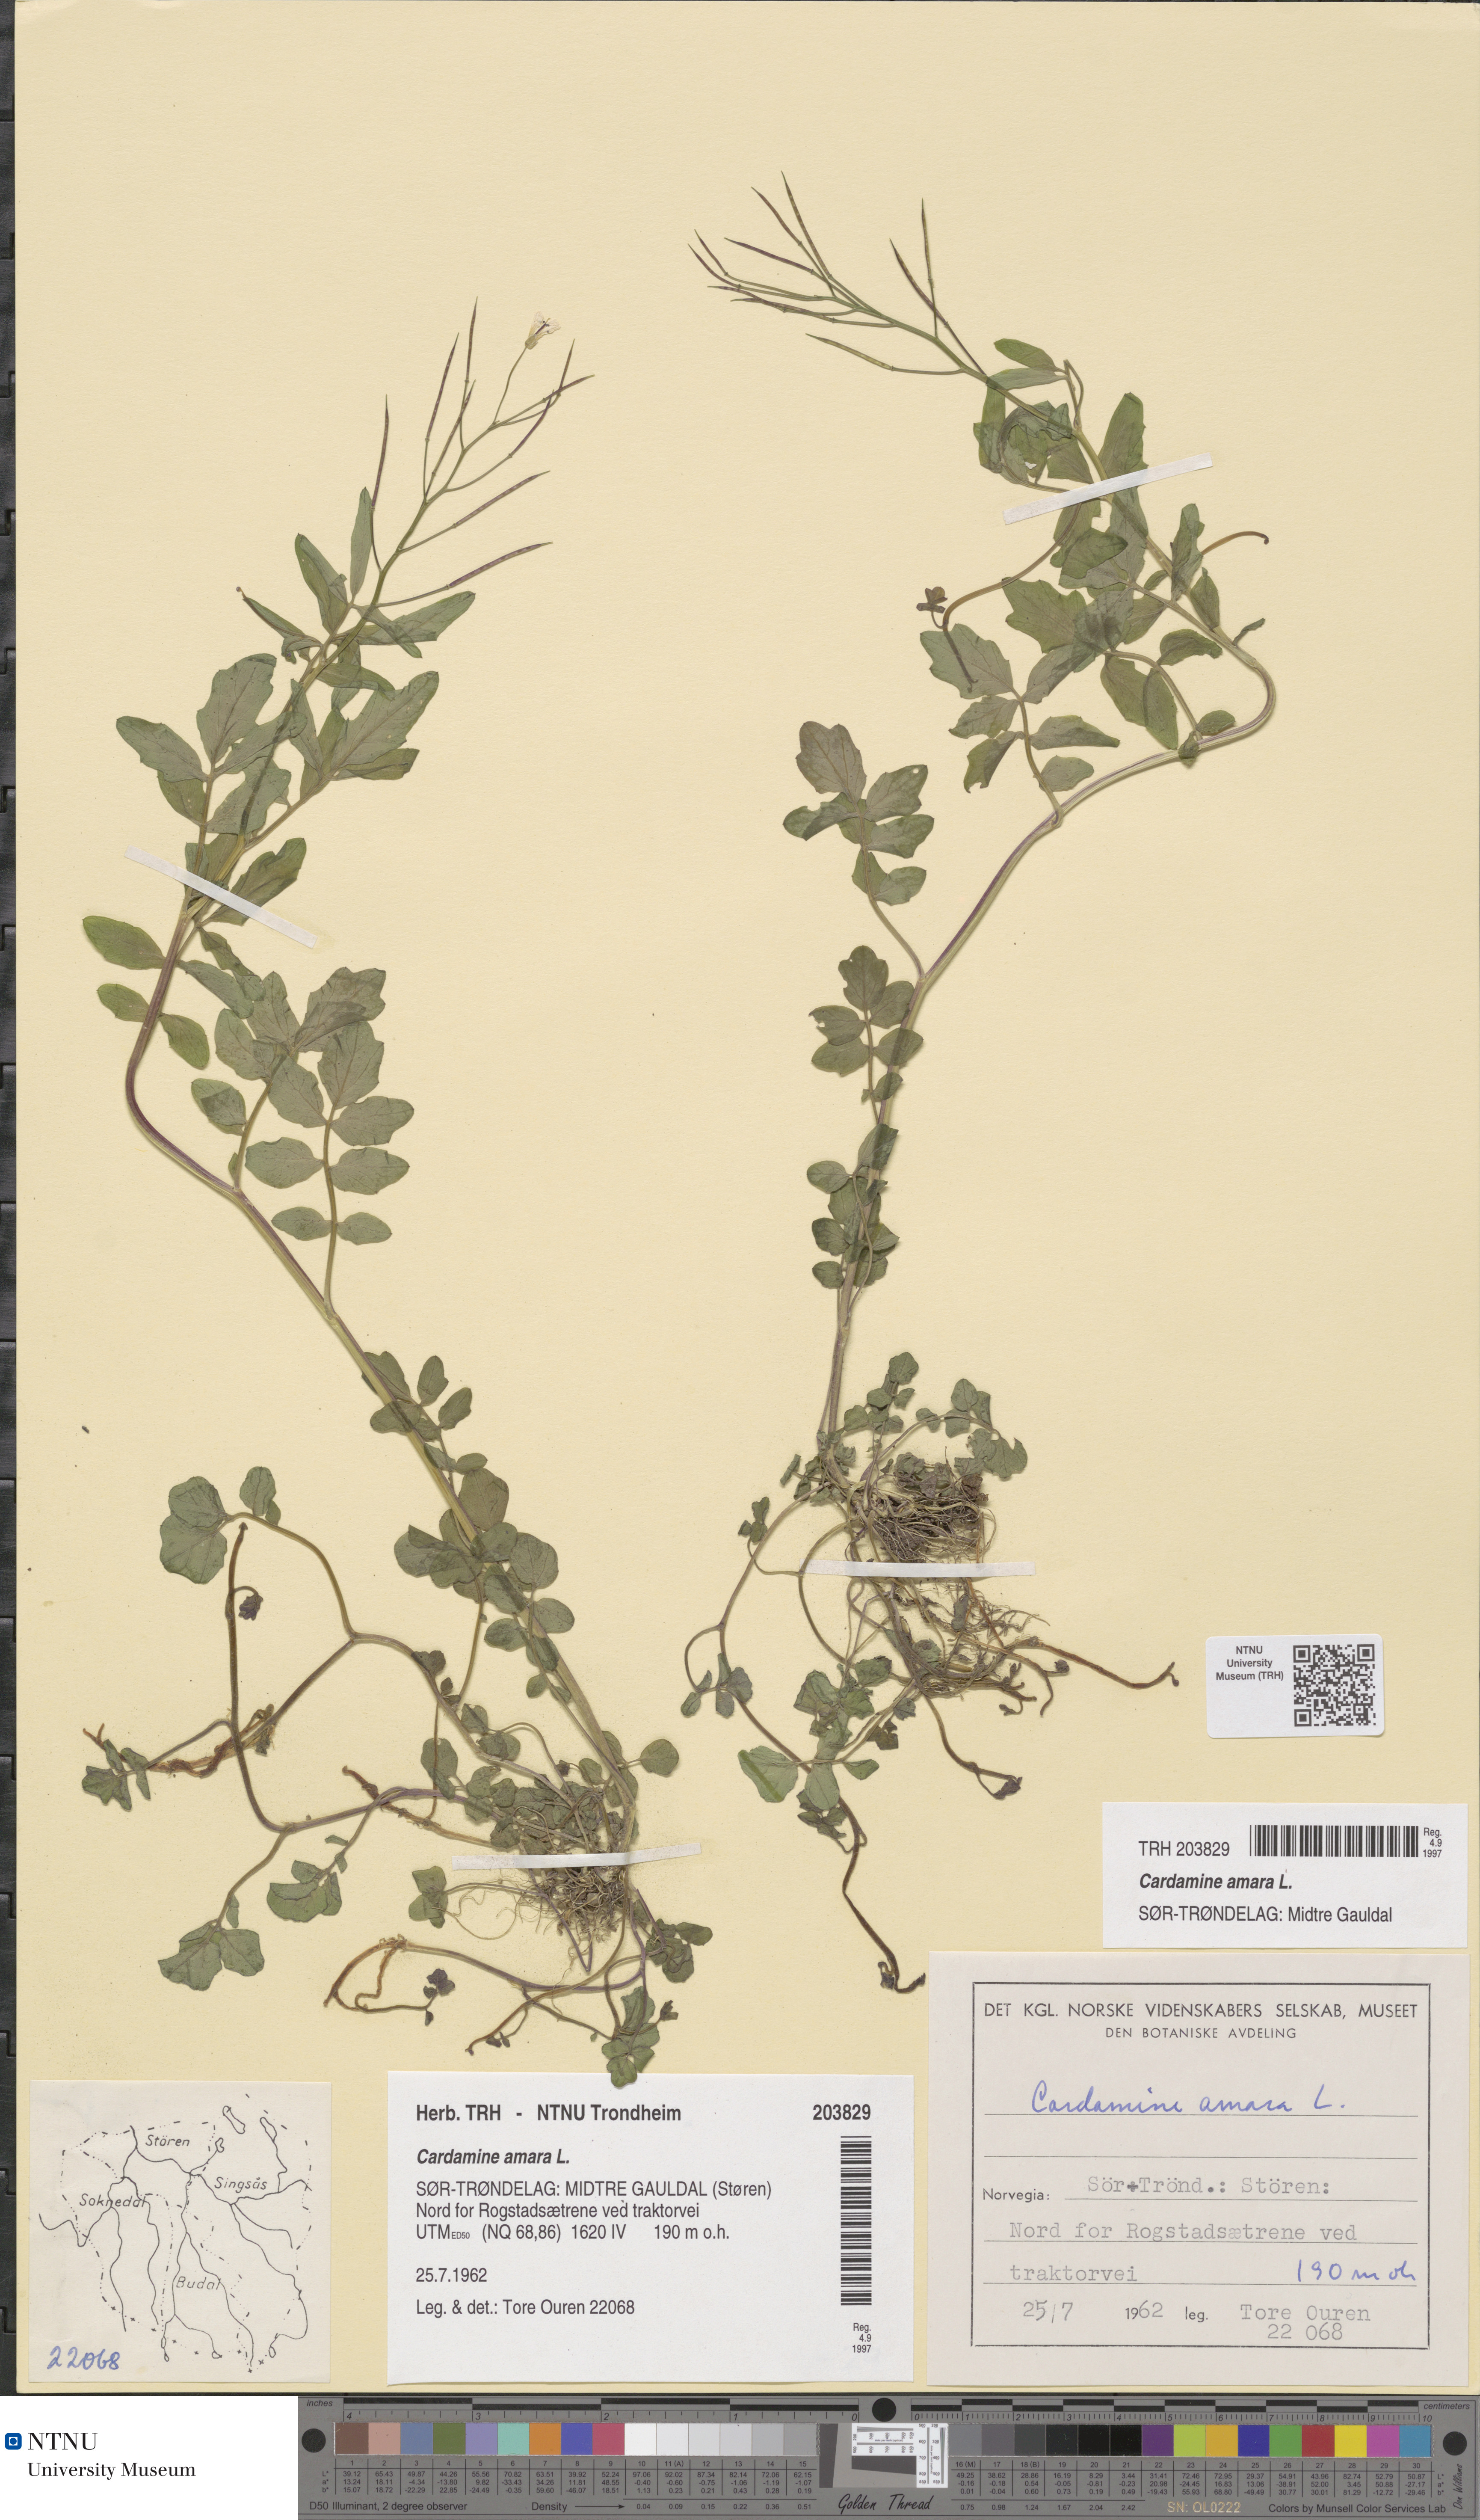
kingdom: Plantae
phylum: Tracheophyta
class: Magnoliopsida
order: Brassicales
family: Brassicaceae
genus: Cardamine
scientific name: Cardamine amara
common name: Large bitter-cress
